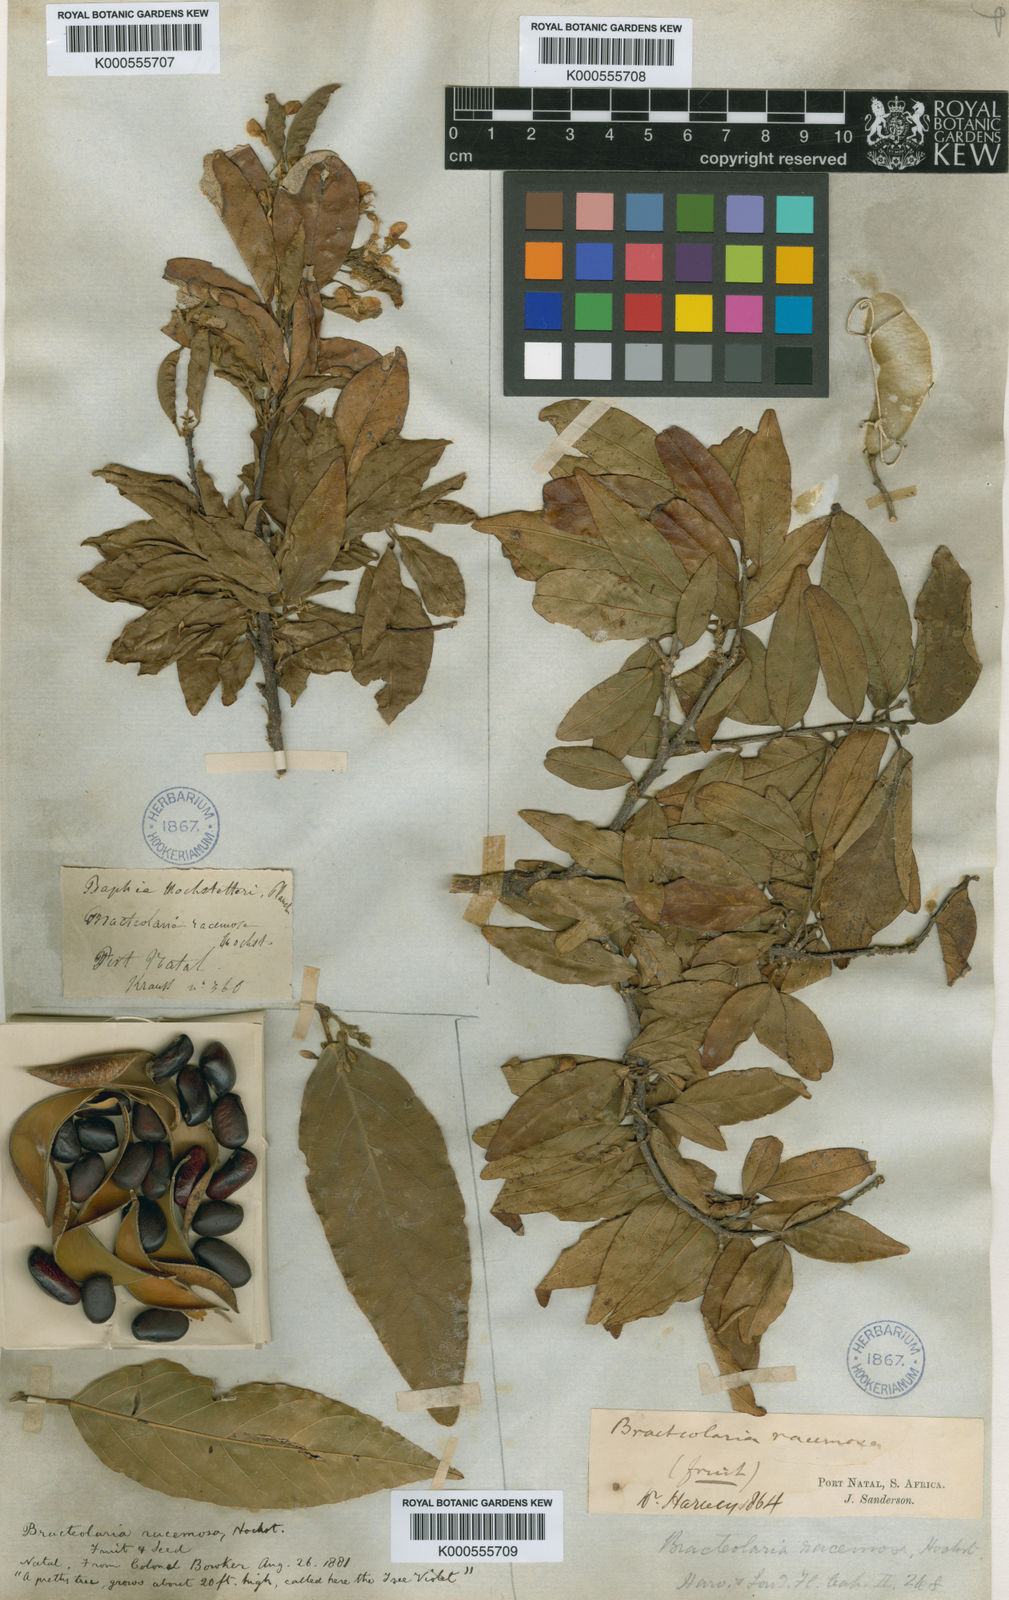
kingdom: Plantae
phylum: Tracheophyta
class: Magnoliopsida
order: Fabales
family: Fabaceae
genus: Bracteolaria
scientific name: Bracteolaria racemosa
